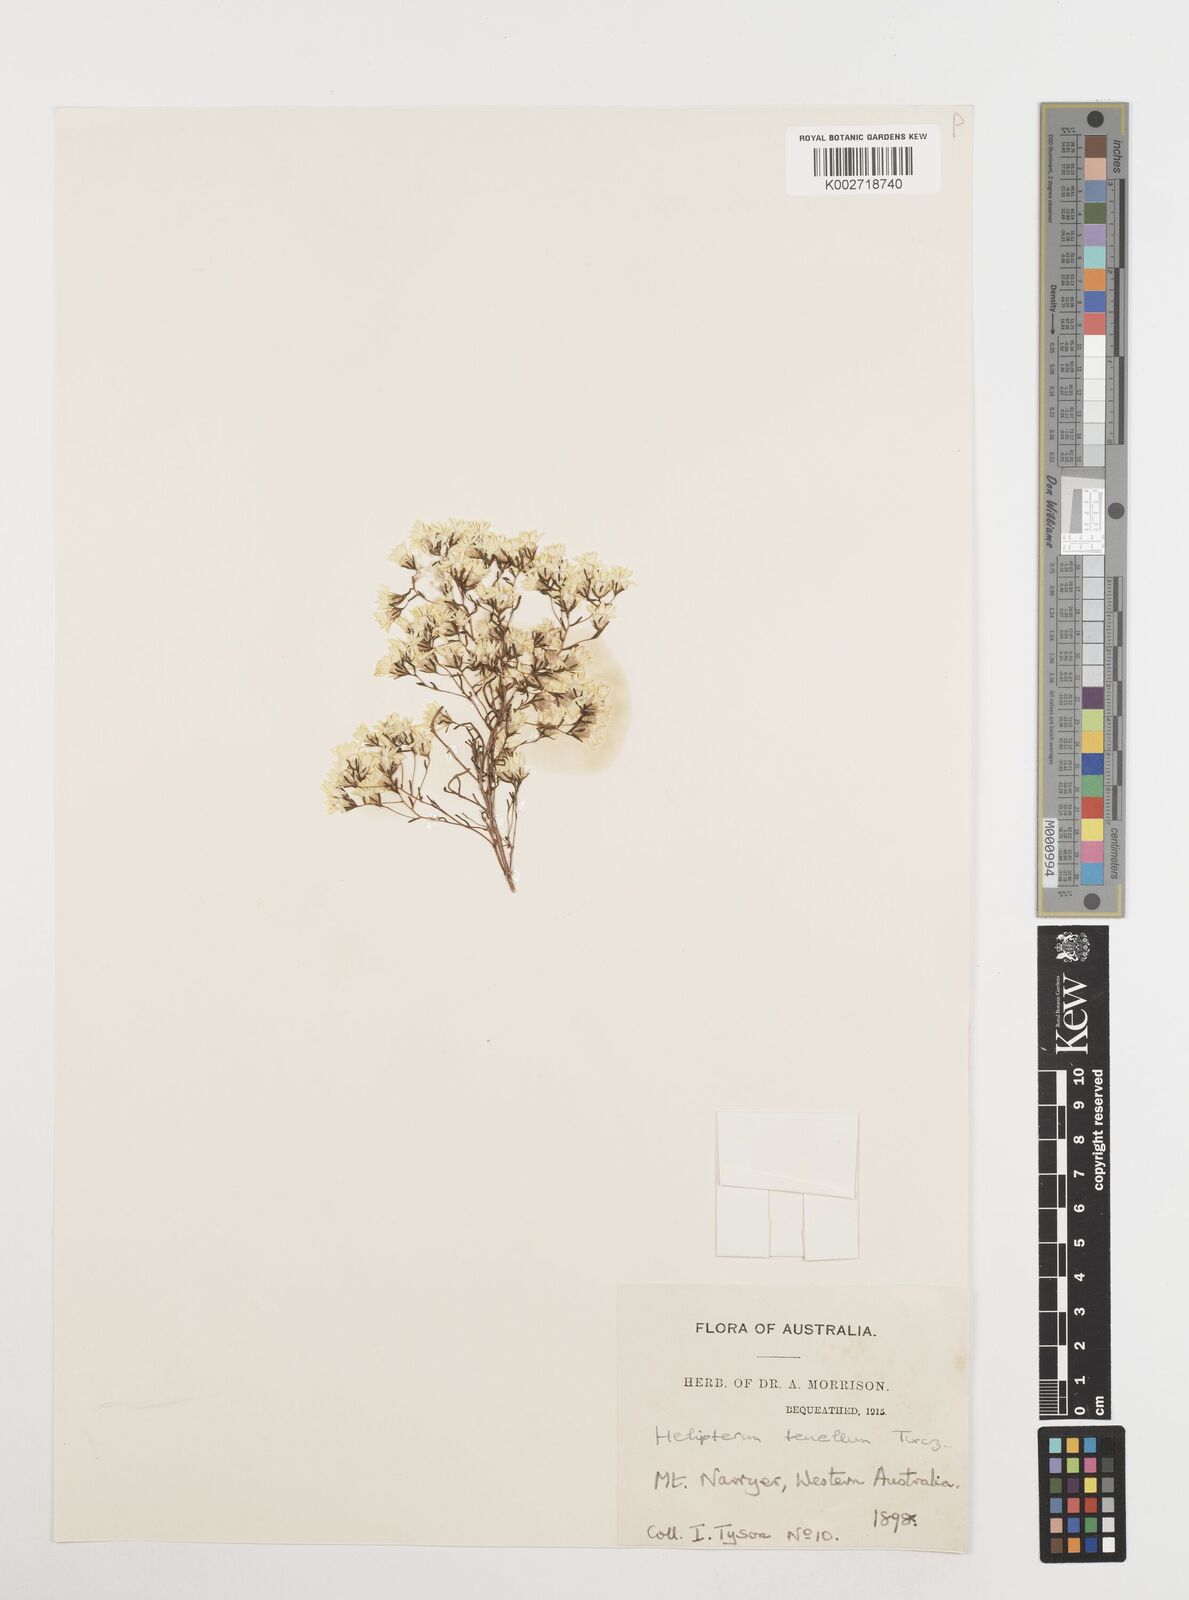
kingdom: Plantae
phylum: Tracheophyta
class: Magnoliopsida
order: Asterales
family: Asteraceae
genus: Erymophyllum
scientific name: Erymophyllum tenellum
